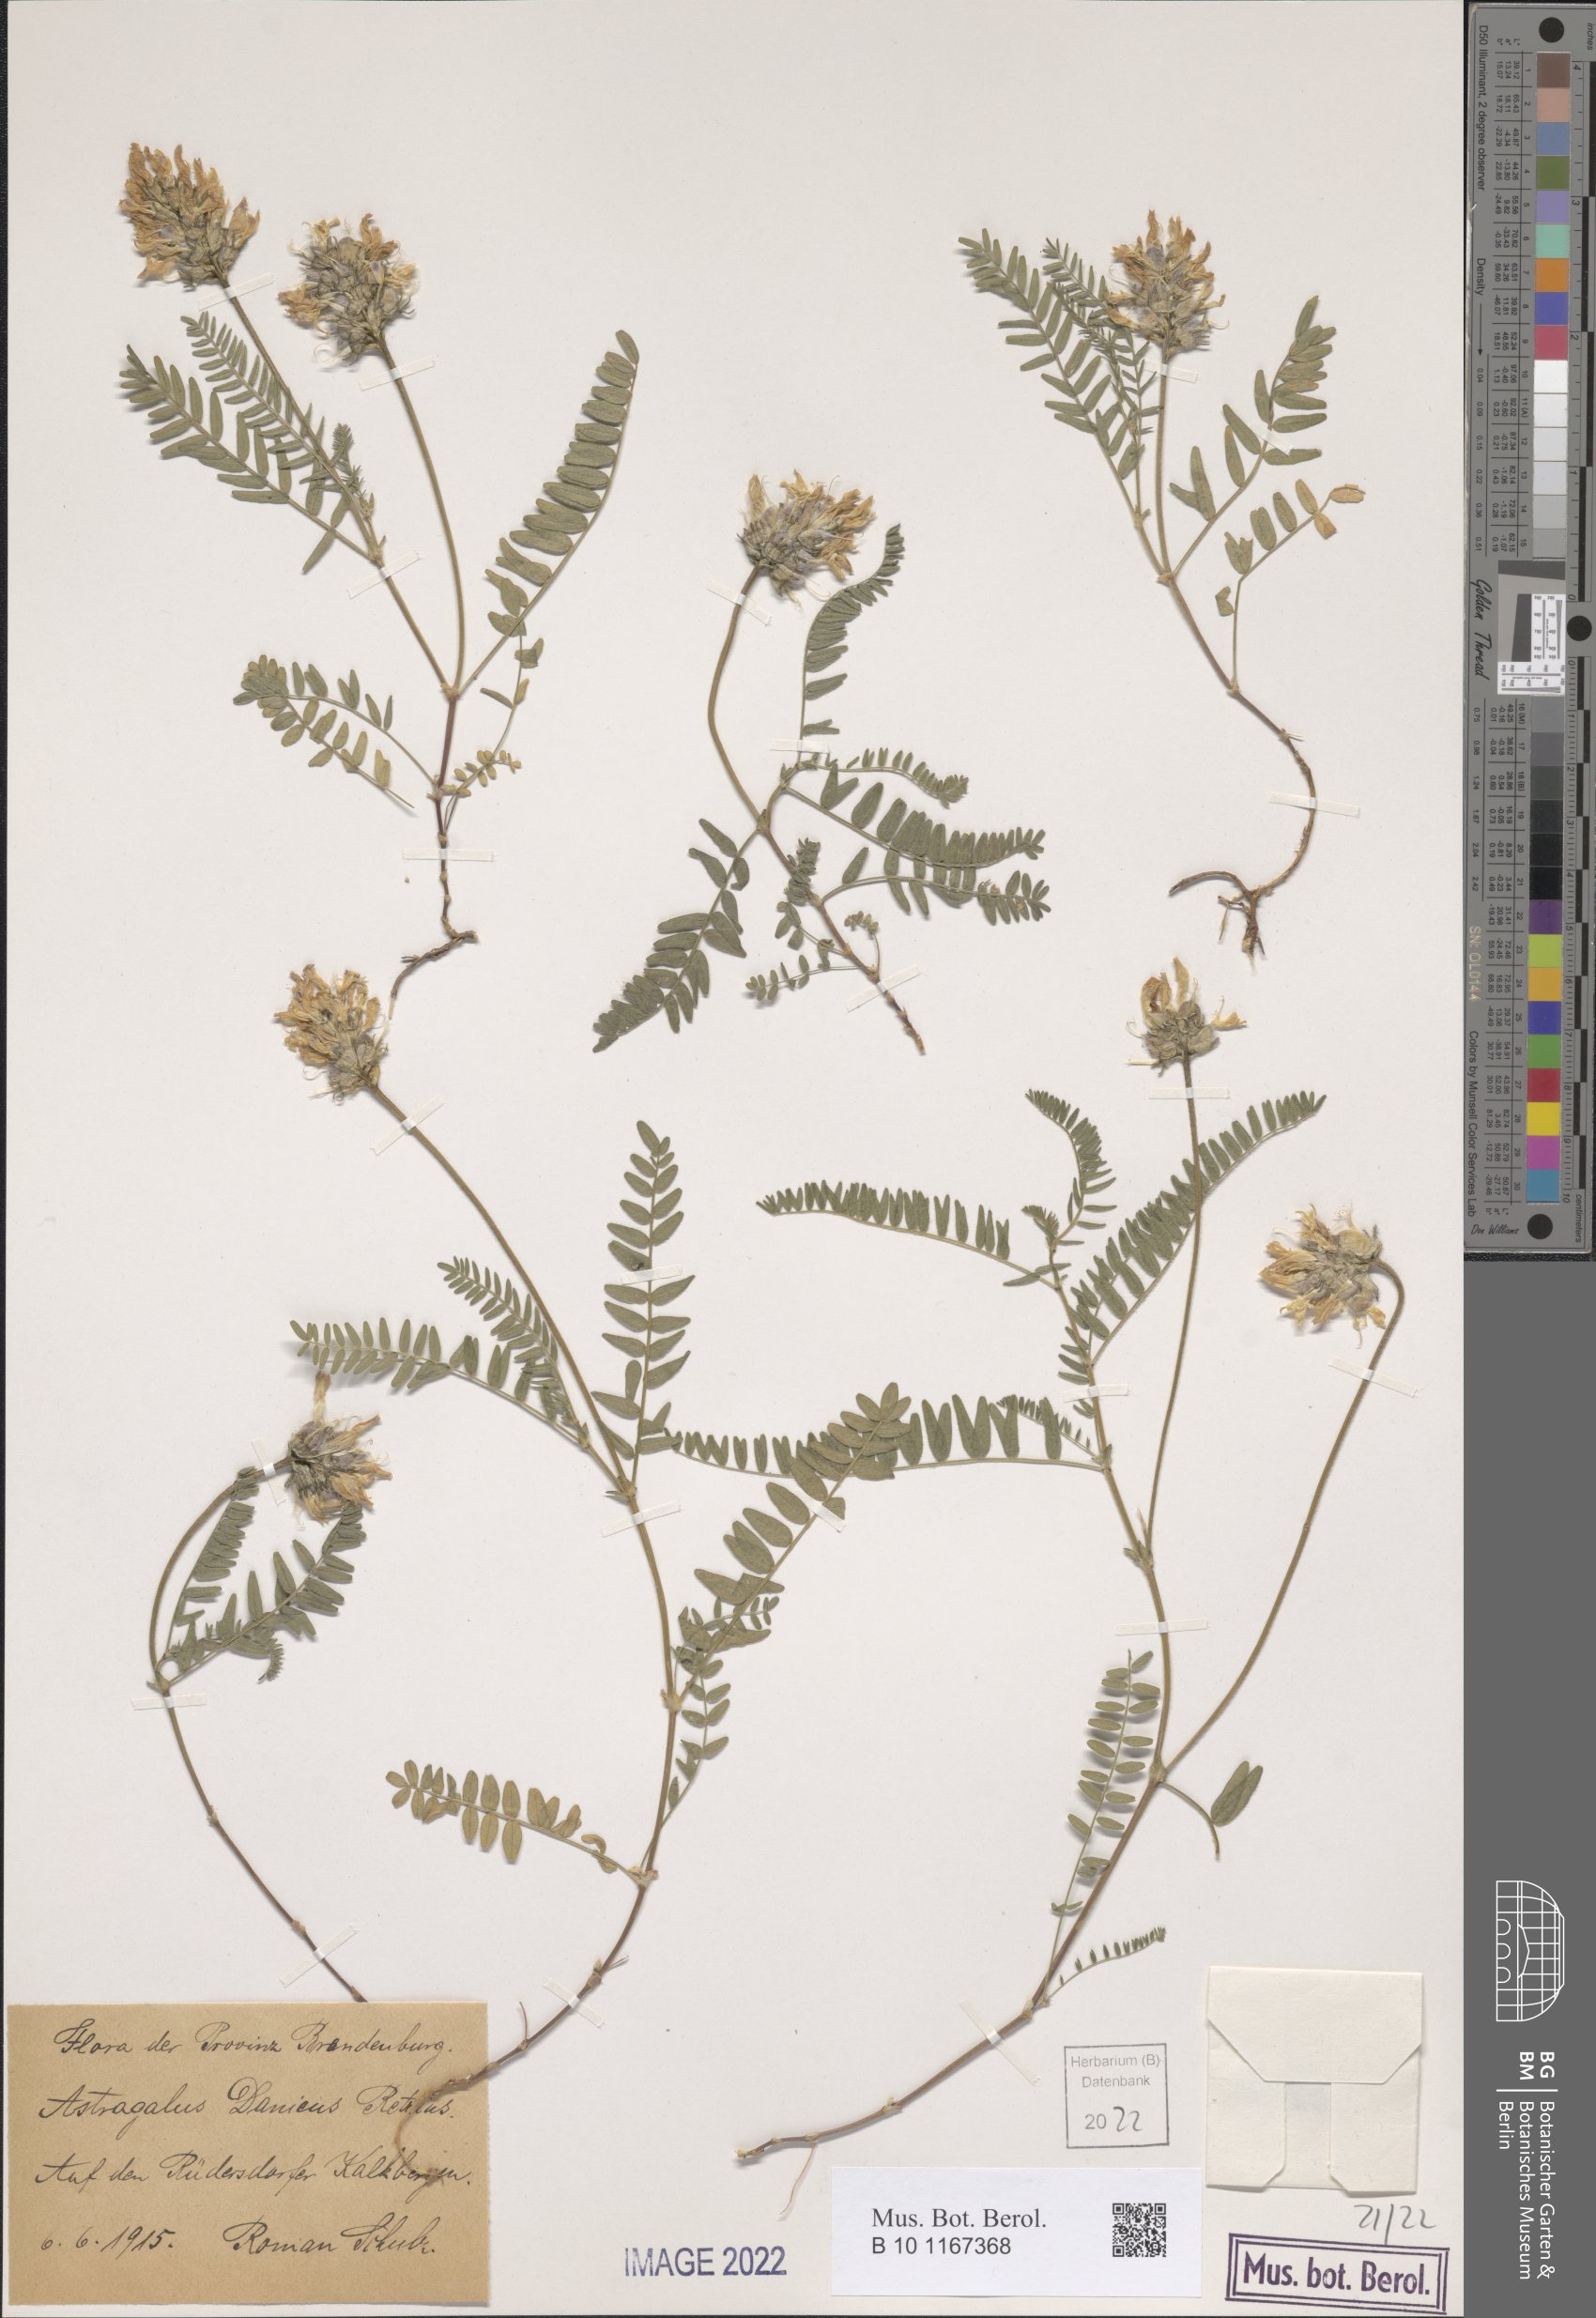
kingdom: Plantae
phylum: Tracheophyta
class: Magnoliopsida
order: Fabales
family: Fabaceae
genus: Astragalus
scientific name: Astragalus danicus
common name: Purple milk-vetch
